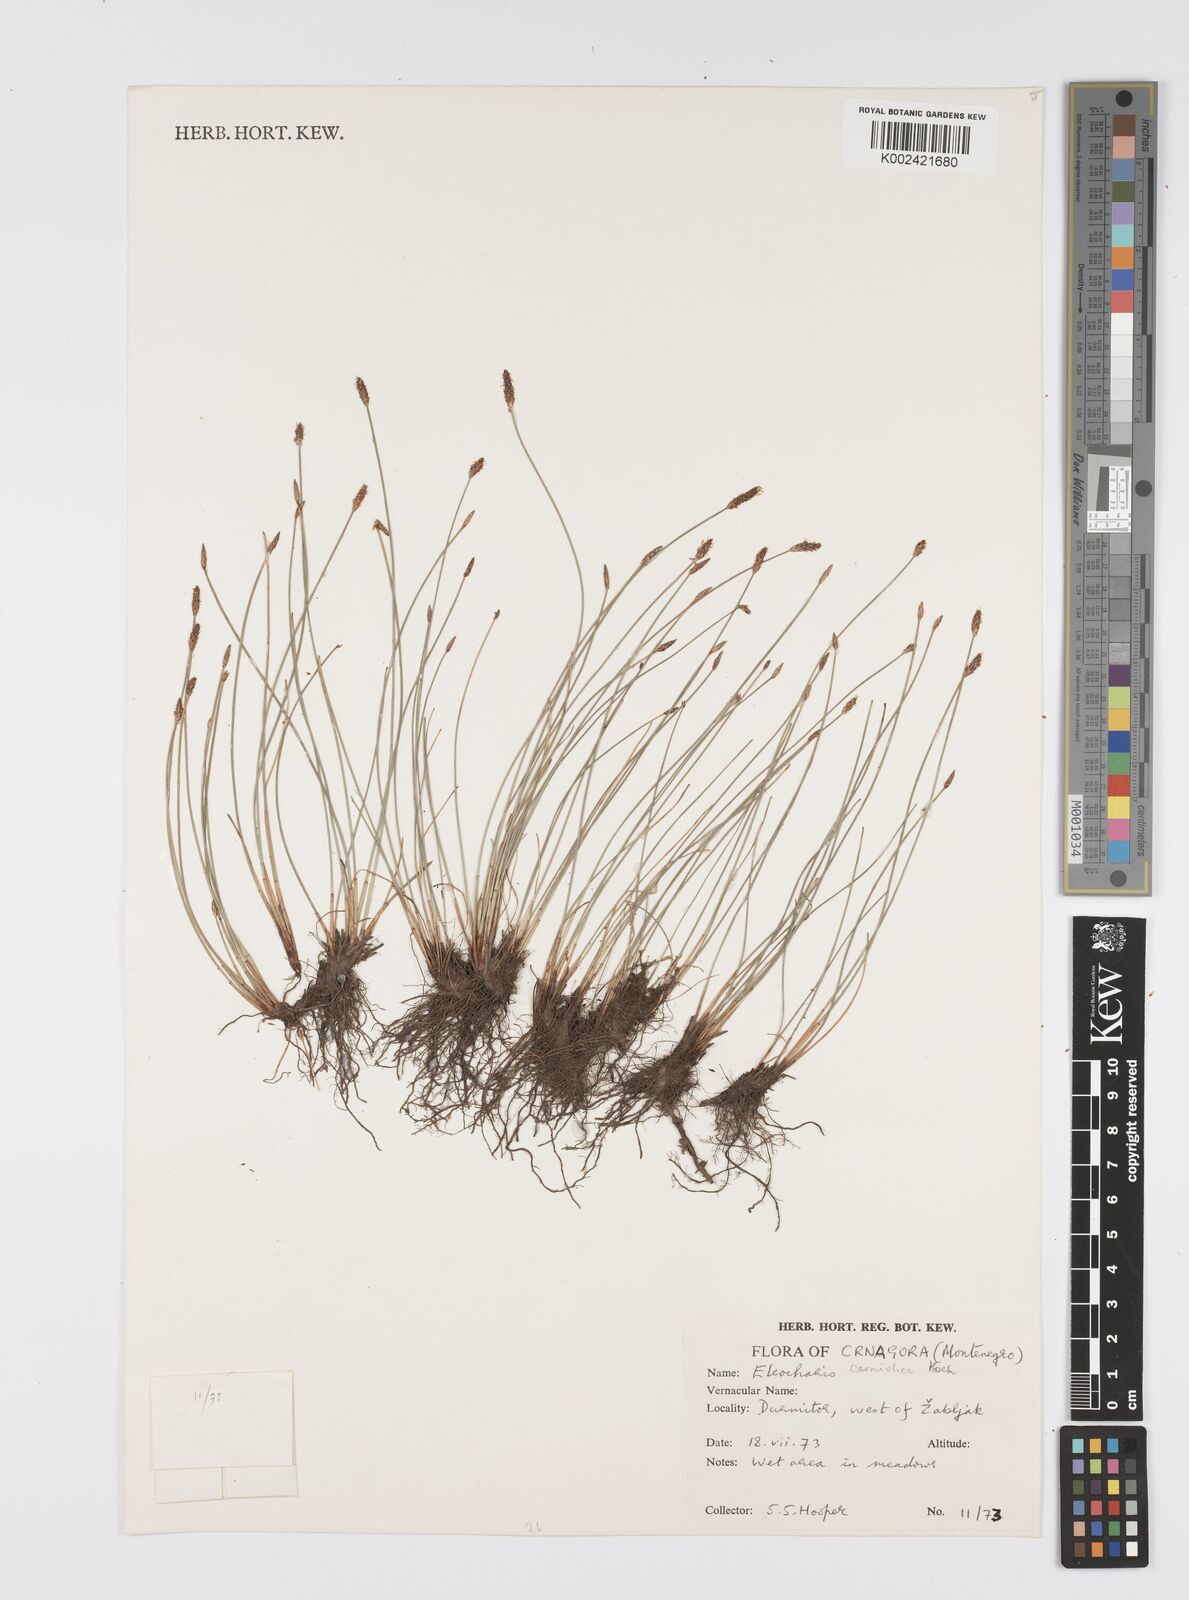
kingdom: Plantae
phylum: Tracheophyta
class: Liliopsida
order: Poales
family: Cyperaceae
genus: Eleocharis
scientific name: Eleocharis carniolica
